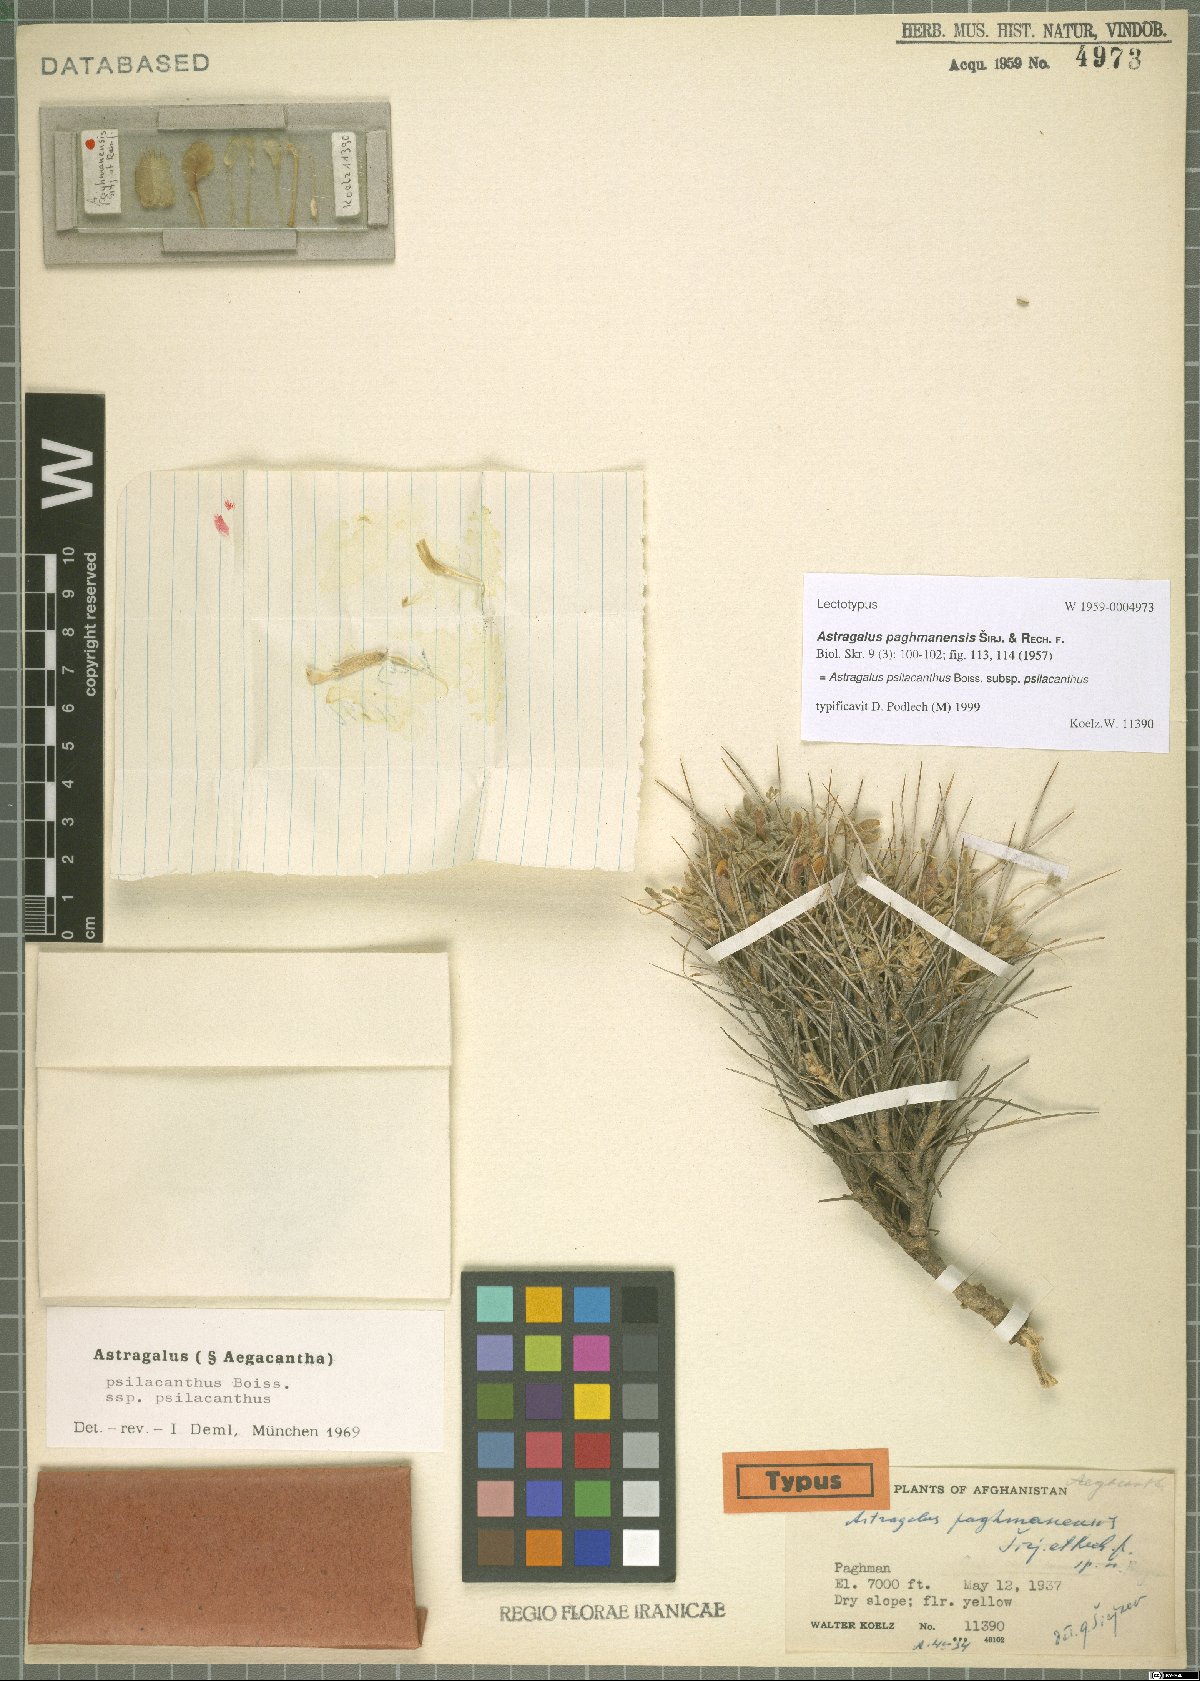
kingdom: Plantae
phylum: Tracheophyta
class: Magnoliopsida
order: Fabales
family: Fabaceae
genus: Astragalus
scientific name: Astragalus psilacanthus
